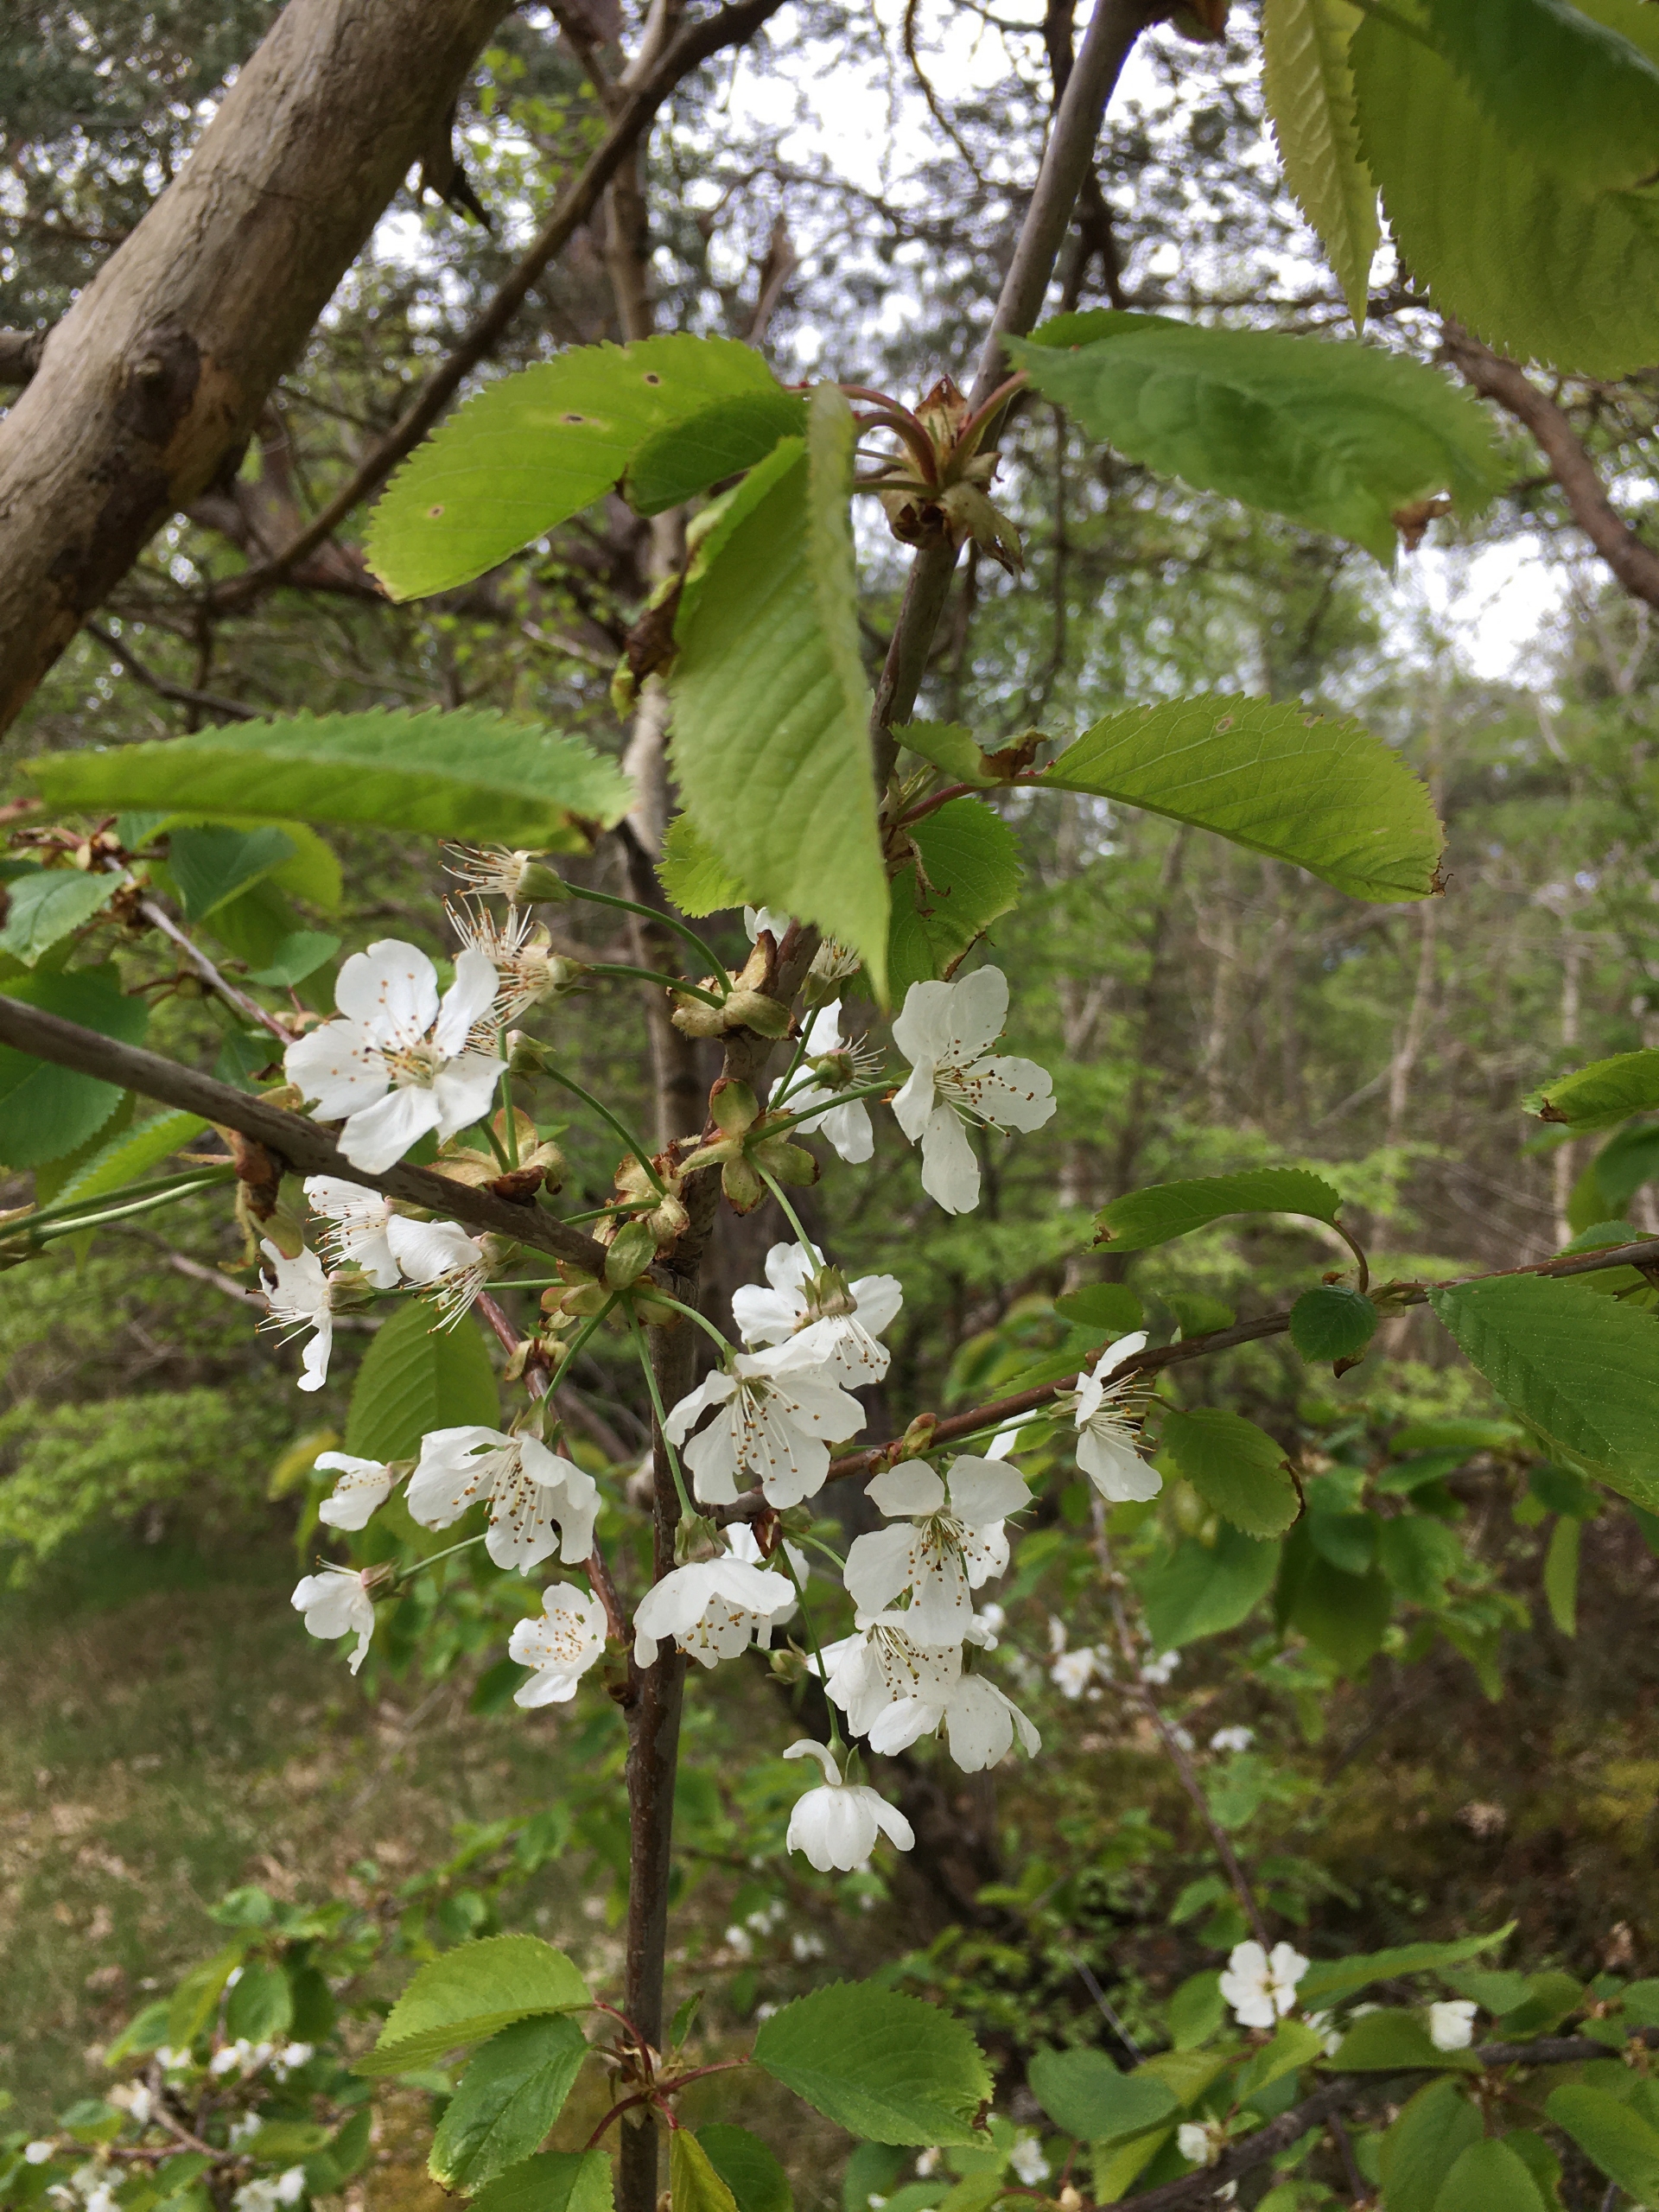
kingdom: Plantae
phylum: Tracheophyta
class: Magnoliopsida
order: Rosales
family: Rosaceae
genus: Prunus
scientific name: Prunus avium
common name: Fugle-kirsebær
